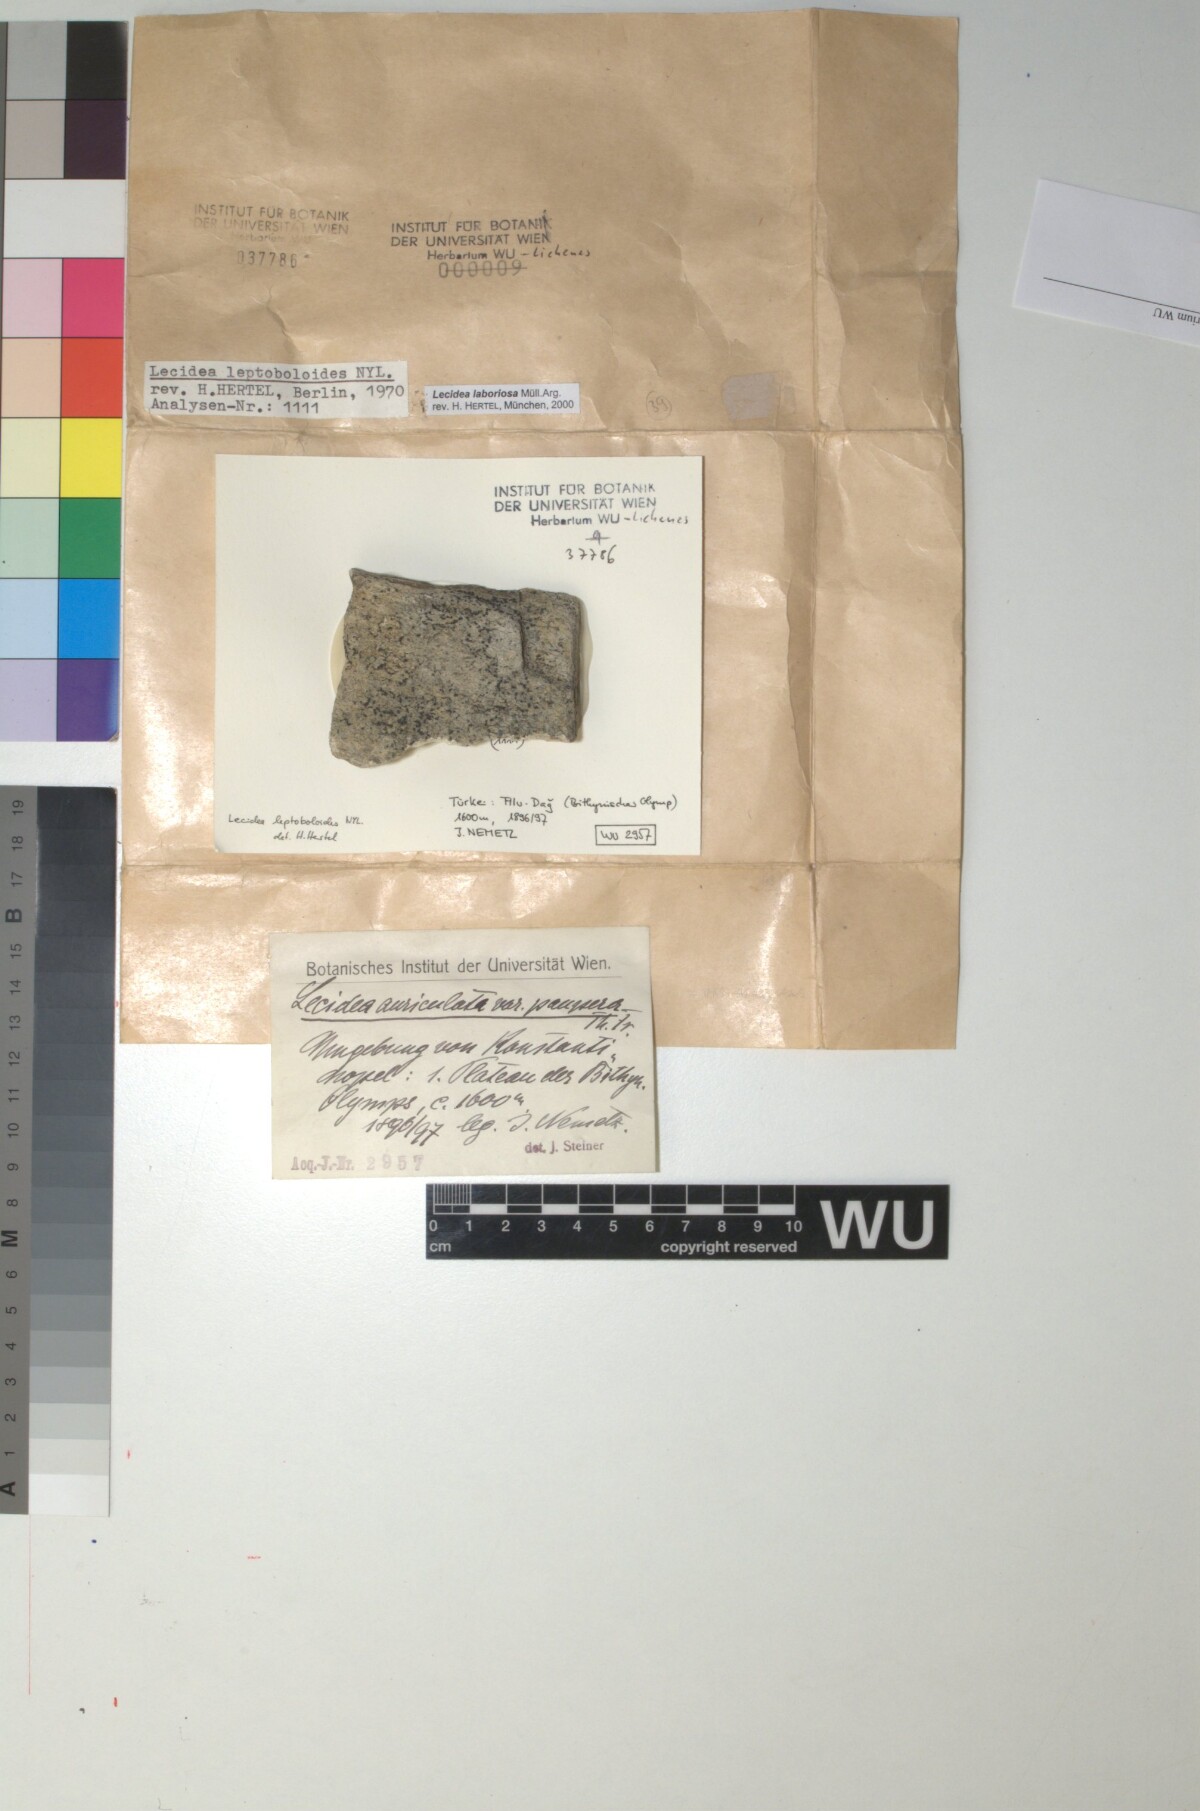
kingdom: Fungi
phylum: Ascomycota
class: Lecanoromycetes
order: Lecideales
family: Lecideaceae
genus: Lecidea
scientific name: Lecidea laboriosa
